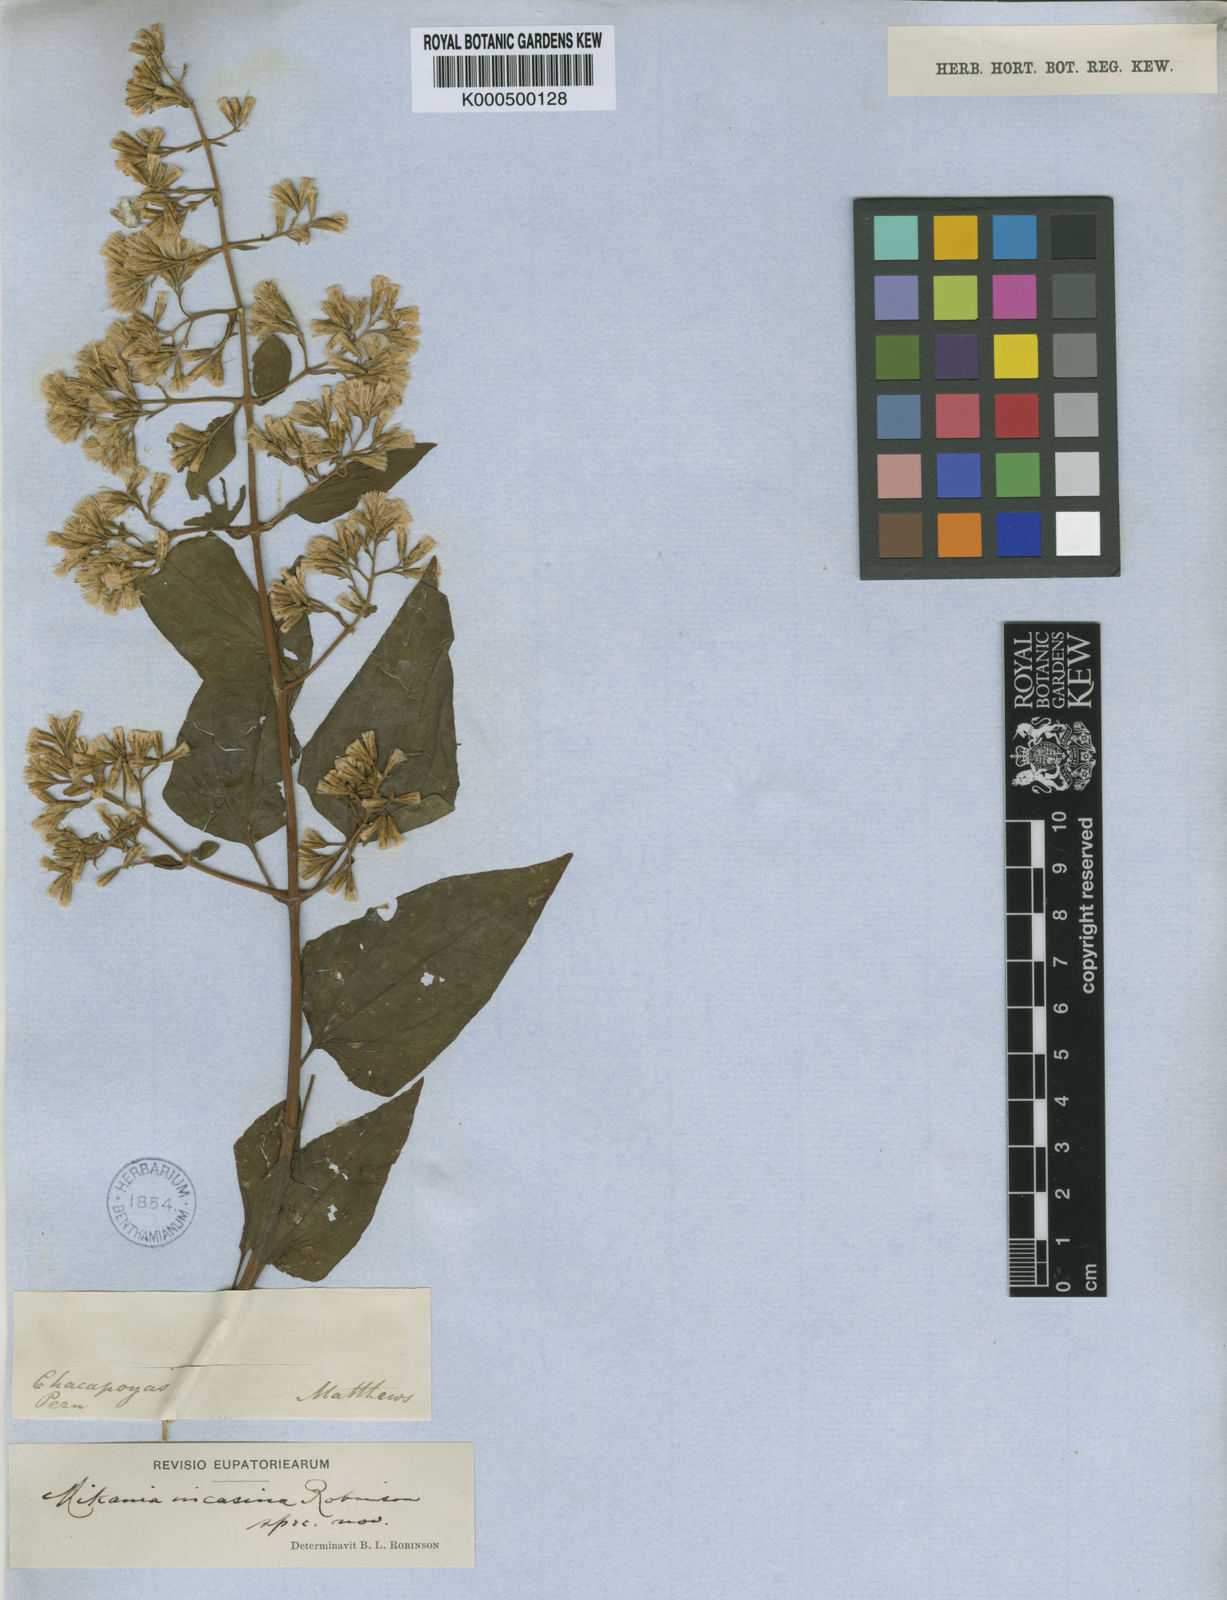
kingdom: Plantae
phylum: Tracheophyta
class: Magnoliopsida
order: Asterales
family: Asteraceae
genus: Mikania
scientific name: Mikania incasina
